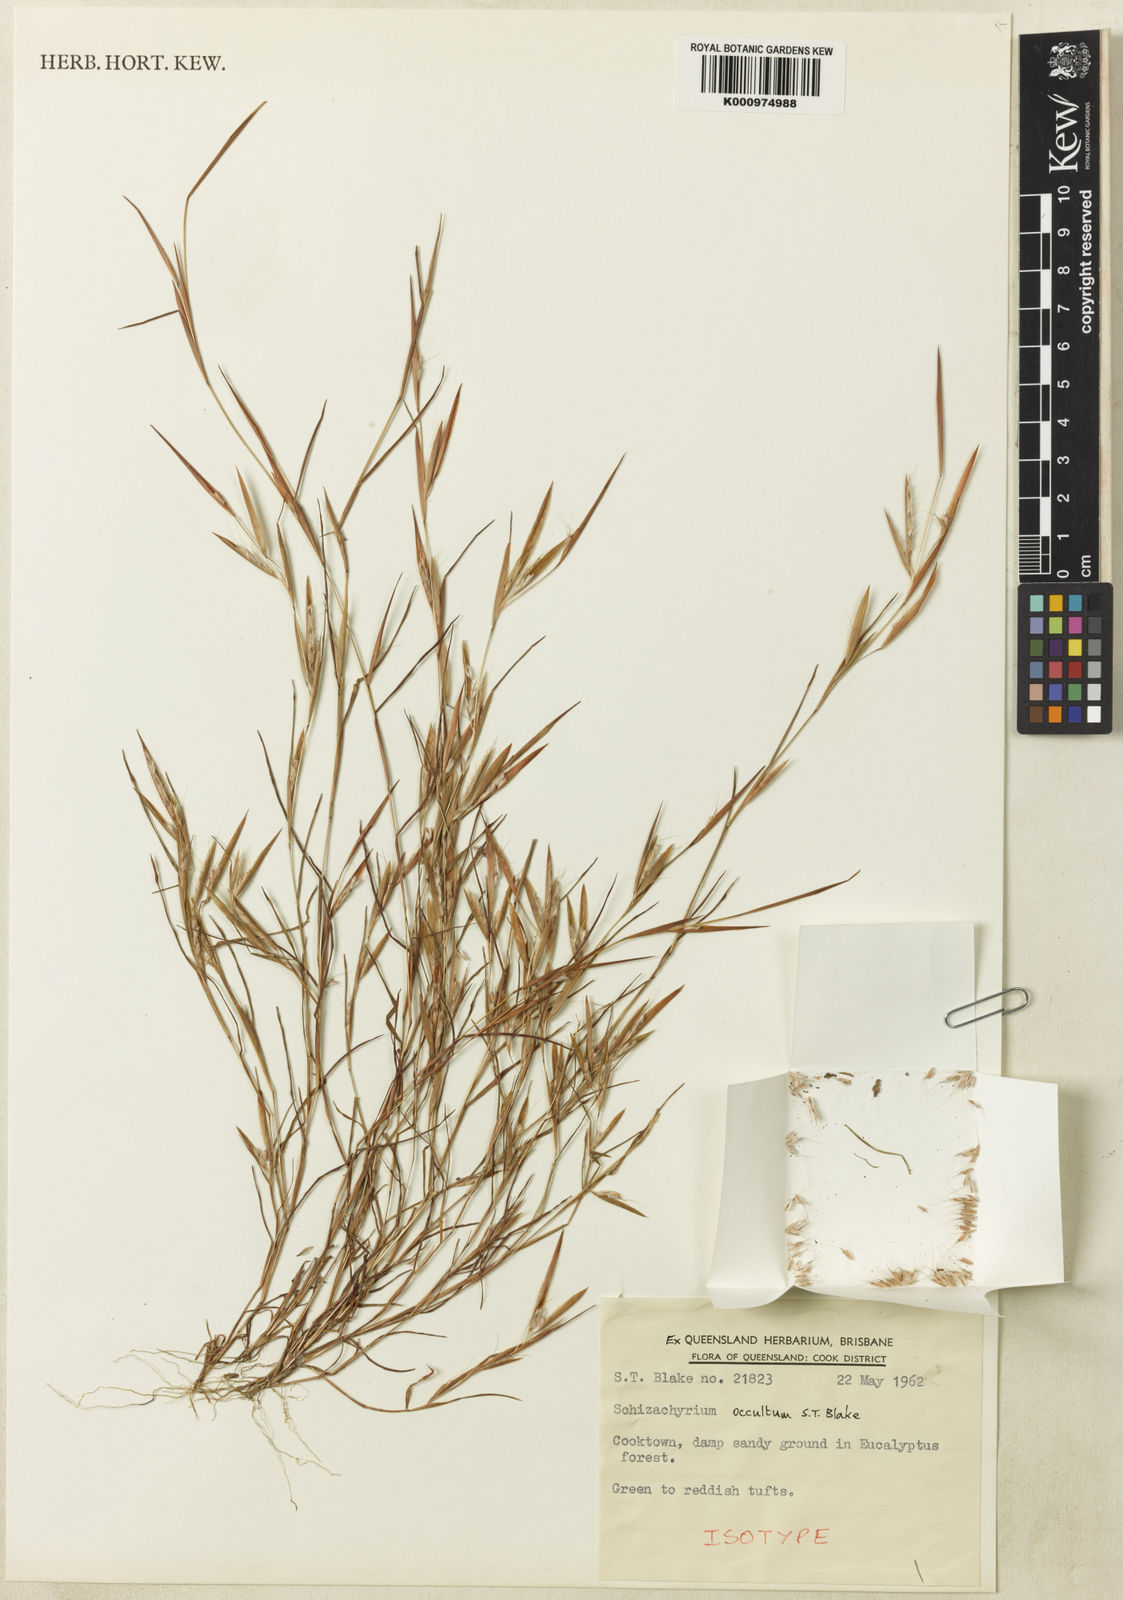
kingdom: Plantae
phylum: Tracheophyta
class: Liliopsida
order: Poales
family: Poaceae
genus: Schizachyrium
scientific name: Schizachyrium occultum
